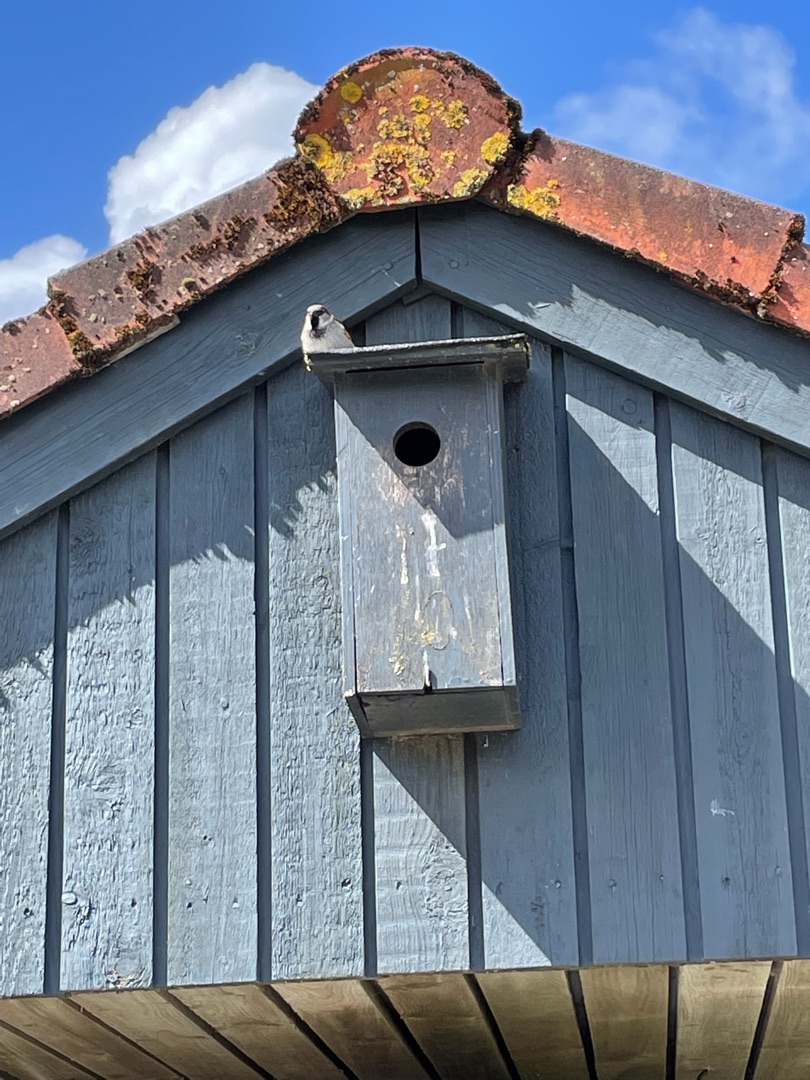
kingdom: Animalia
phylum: Chordata
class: Aves
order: Passeriformes
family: Passeridae
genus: Passer
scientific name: Passer domesticus
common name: Gråspurv
